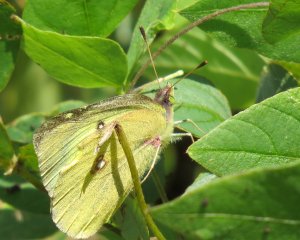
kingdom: Animalia
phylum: Arthropoda
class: Insecta
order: Lepidoptera
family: Pieridae
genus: Colias
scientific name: Colias philodice
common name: Clouded Sulphur
